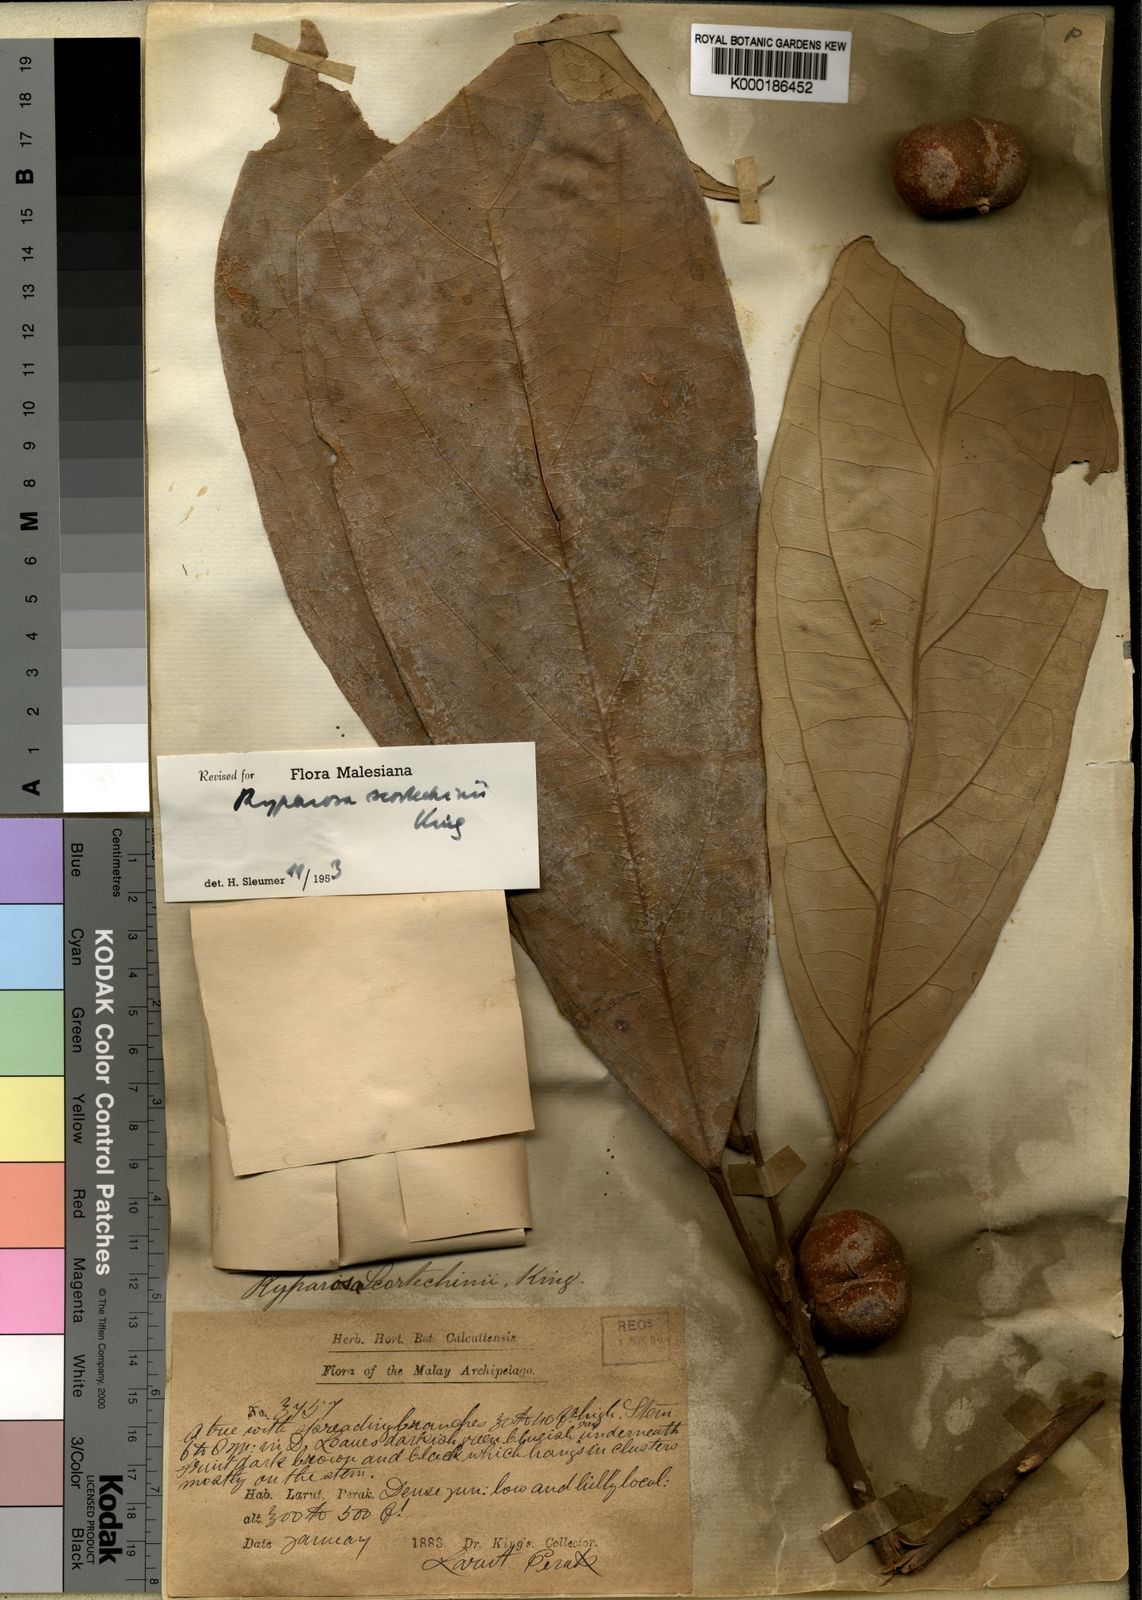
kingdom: Plantae
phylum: Tracheophyta
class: Magnoliopsida
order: Malpighiales
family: Achariaceae
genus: Ryparosa
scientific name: Ryparosa fasciculata
